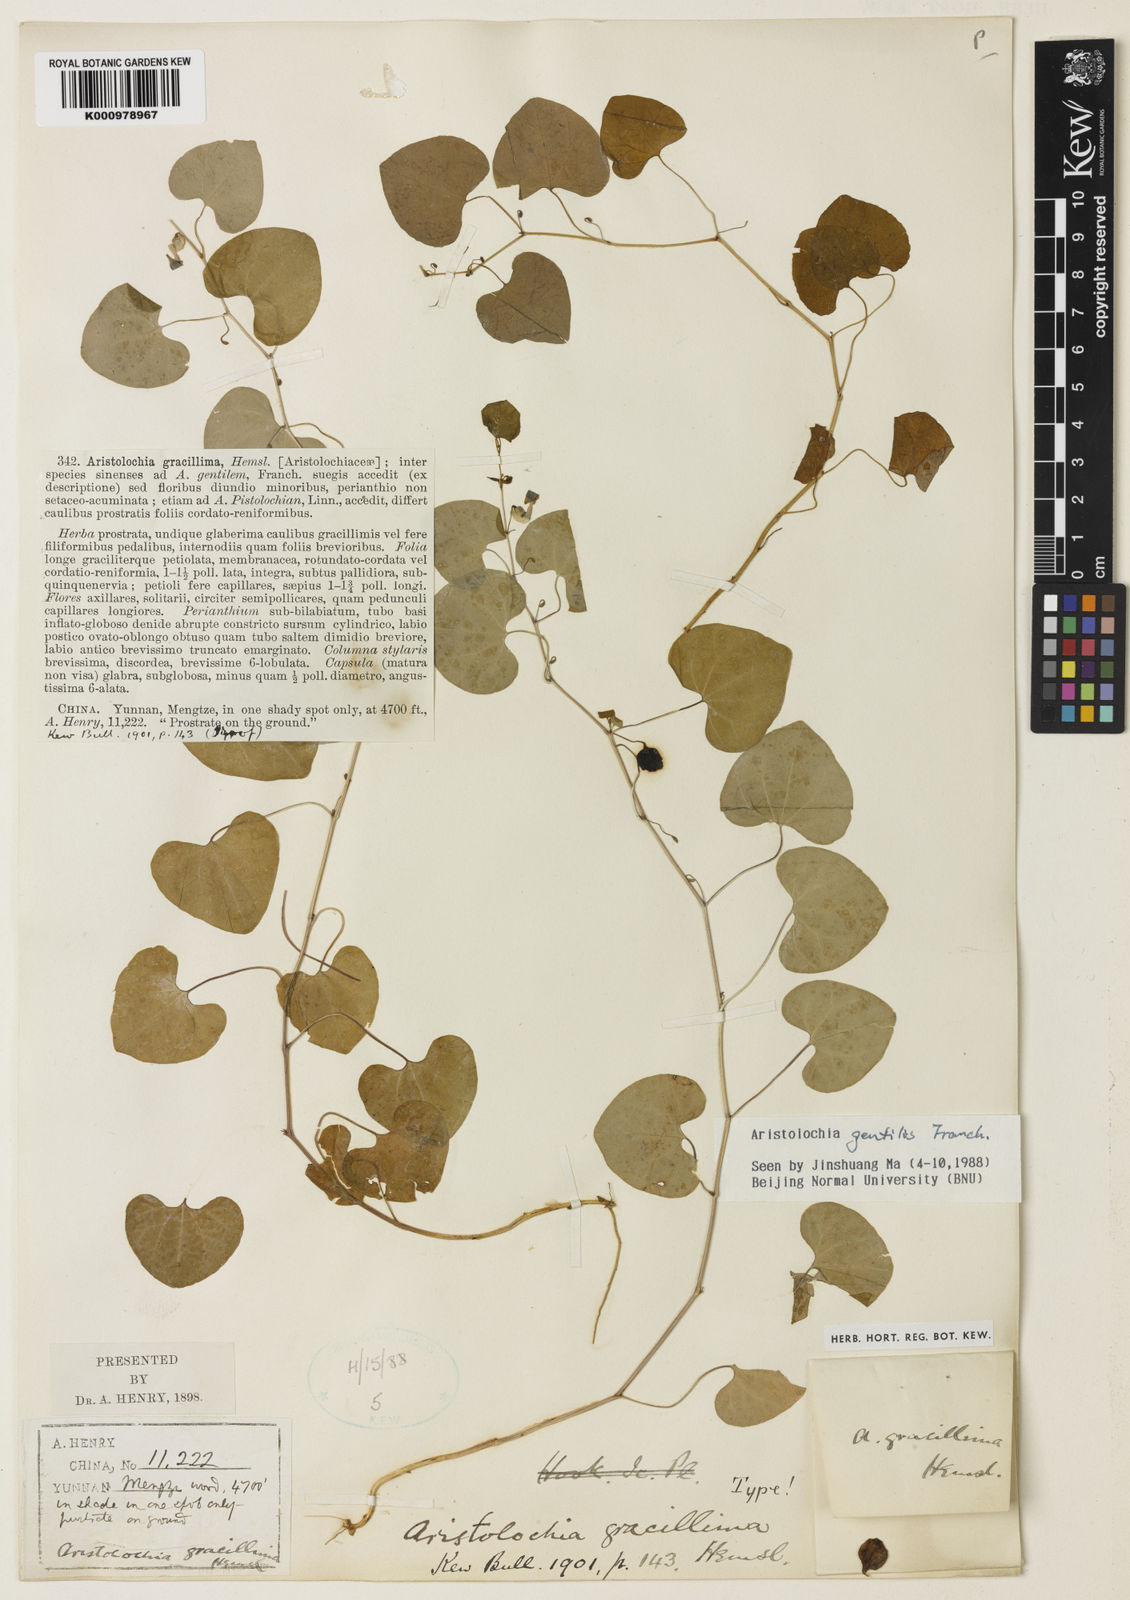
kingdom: Plantae
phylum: Tracheophyta
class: Magnoliopsida
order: Piperales
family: Aristolochiaceae
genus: Aristolochia
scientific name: Aristolochia tubiflora
